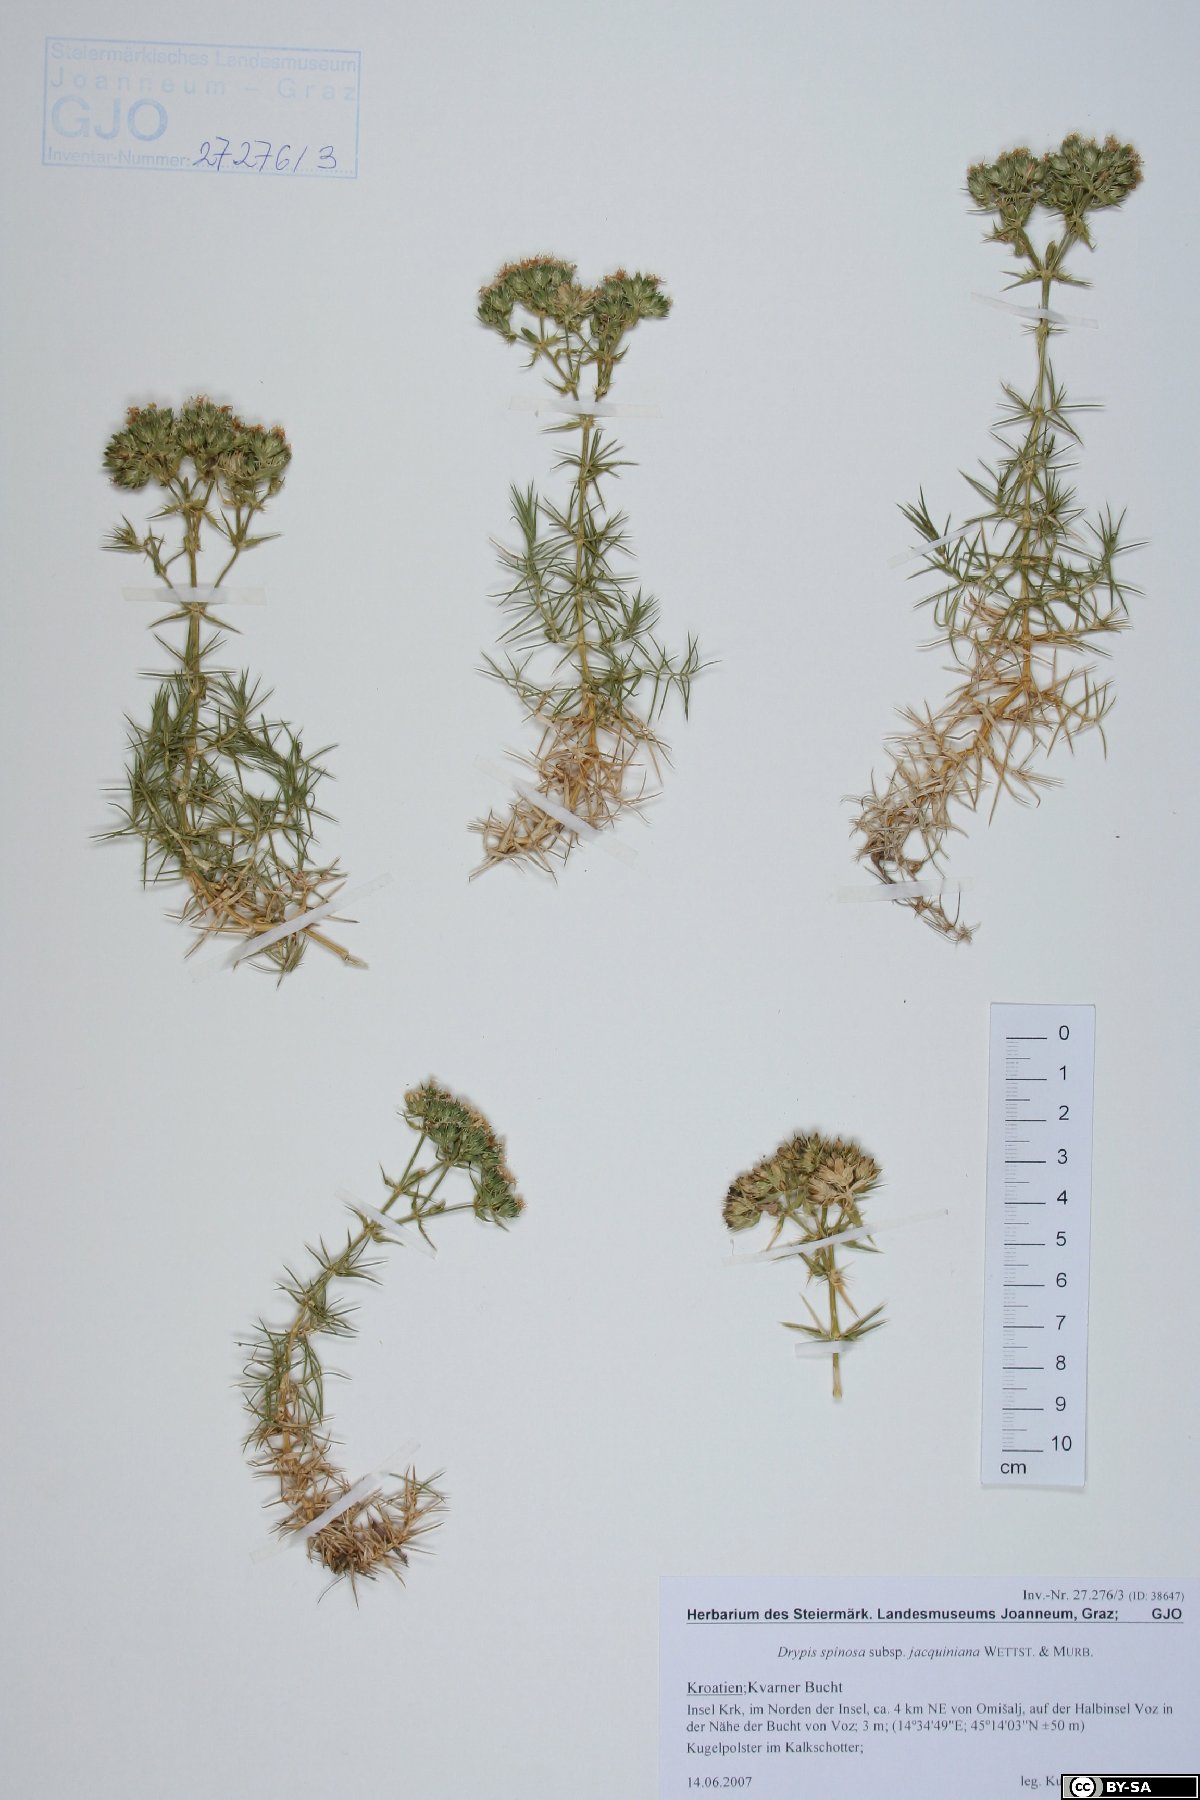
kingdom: Plantae
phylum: Tracheophyta
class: Magnoliopsida
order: Caryophyllales
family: Caryophyllaceae
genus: Drypis
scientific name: Drypis spinosa
